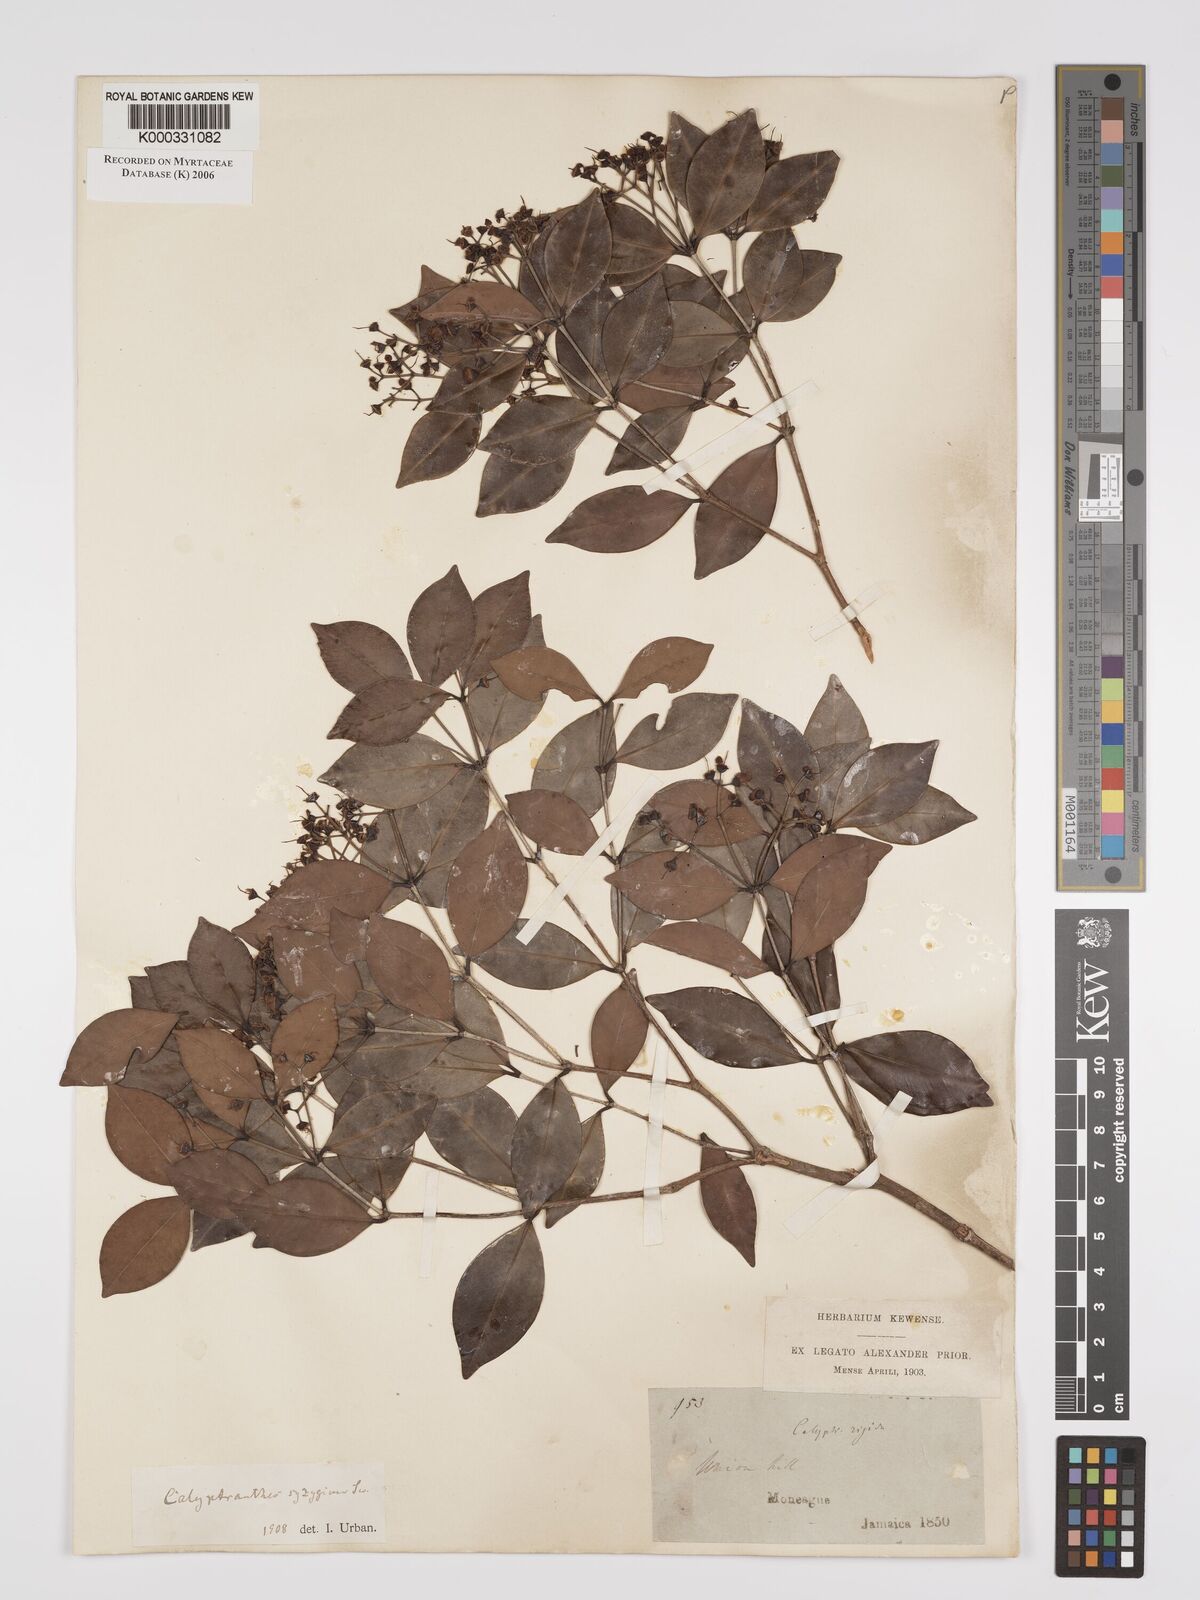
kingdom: Plantae
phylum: Tracheophyta
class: Magnoliopsida
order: Myrtales
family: Myrtaceae
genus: Myrcia
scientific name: Myrcia chytraculia
